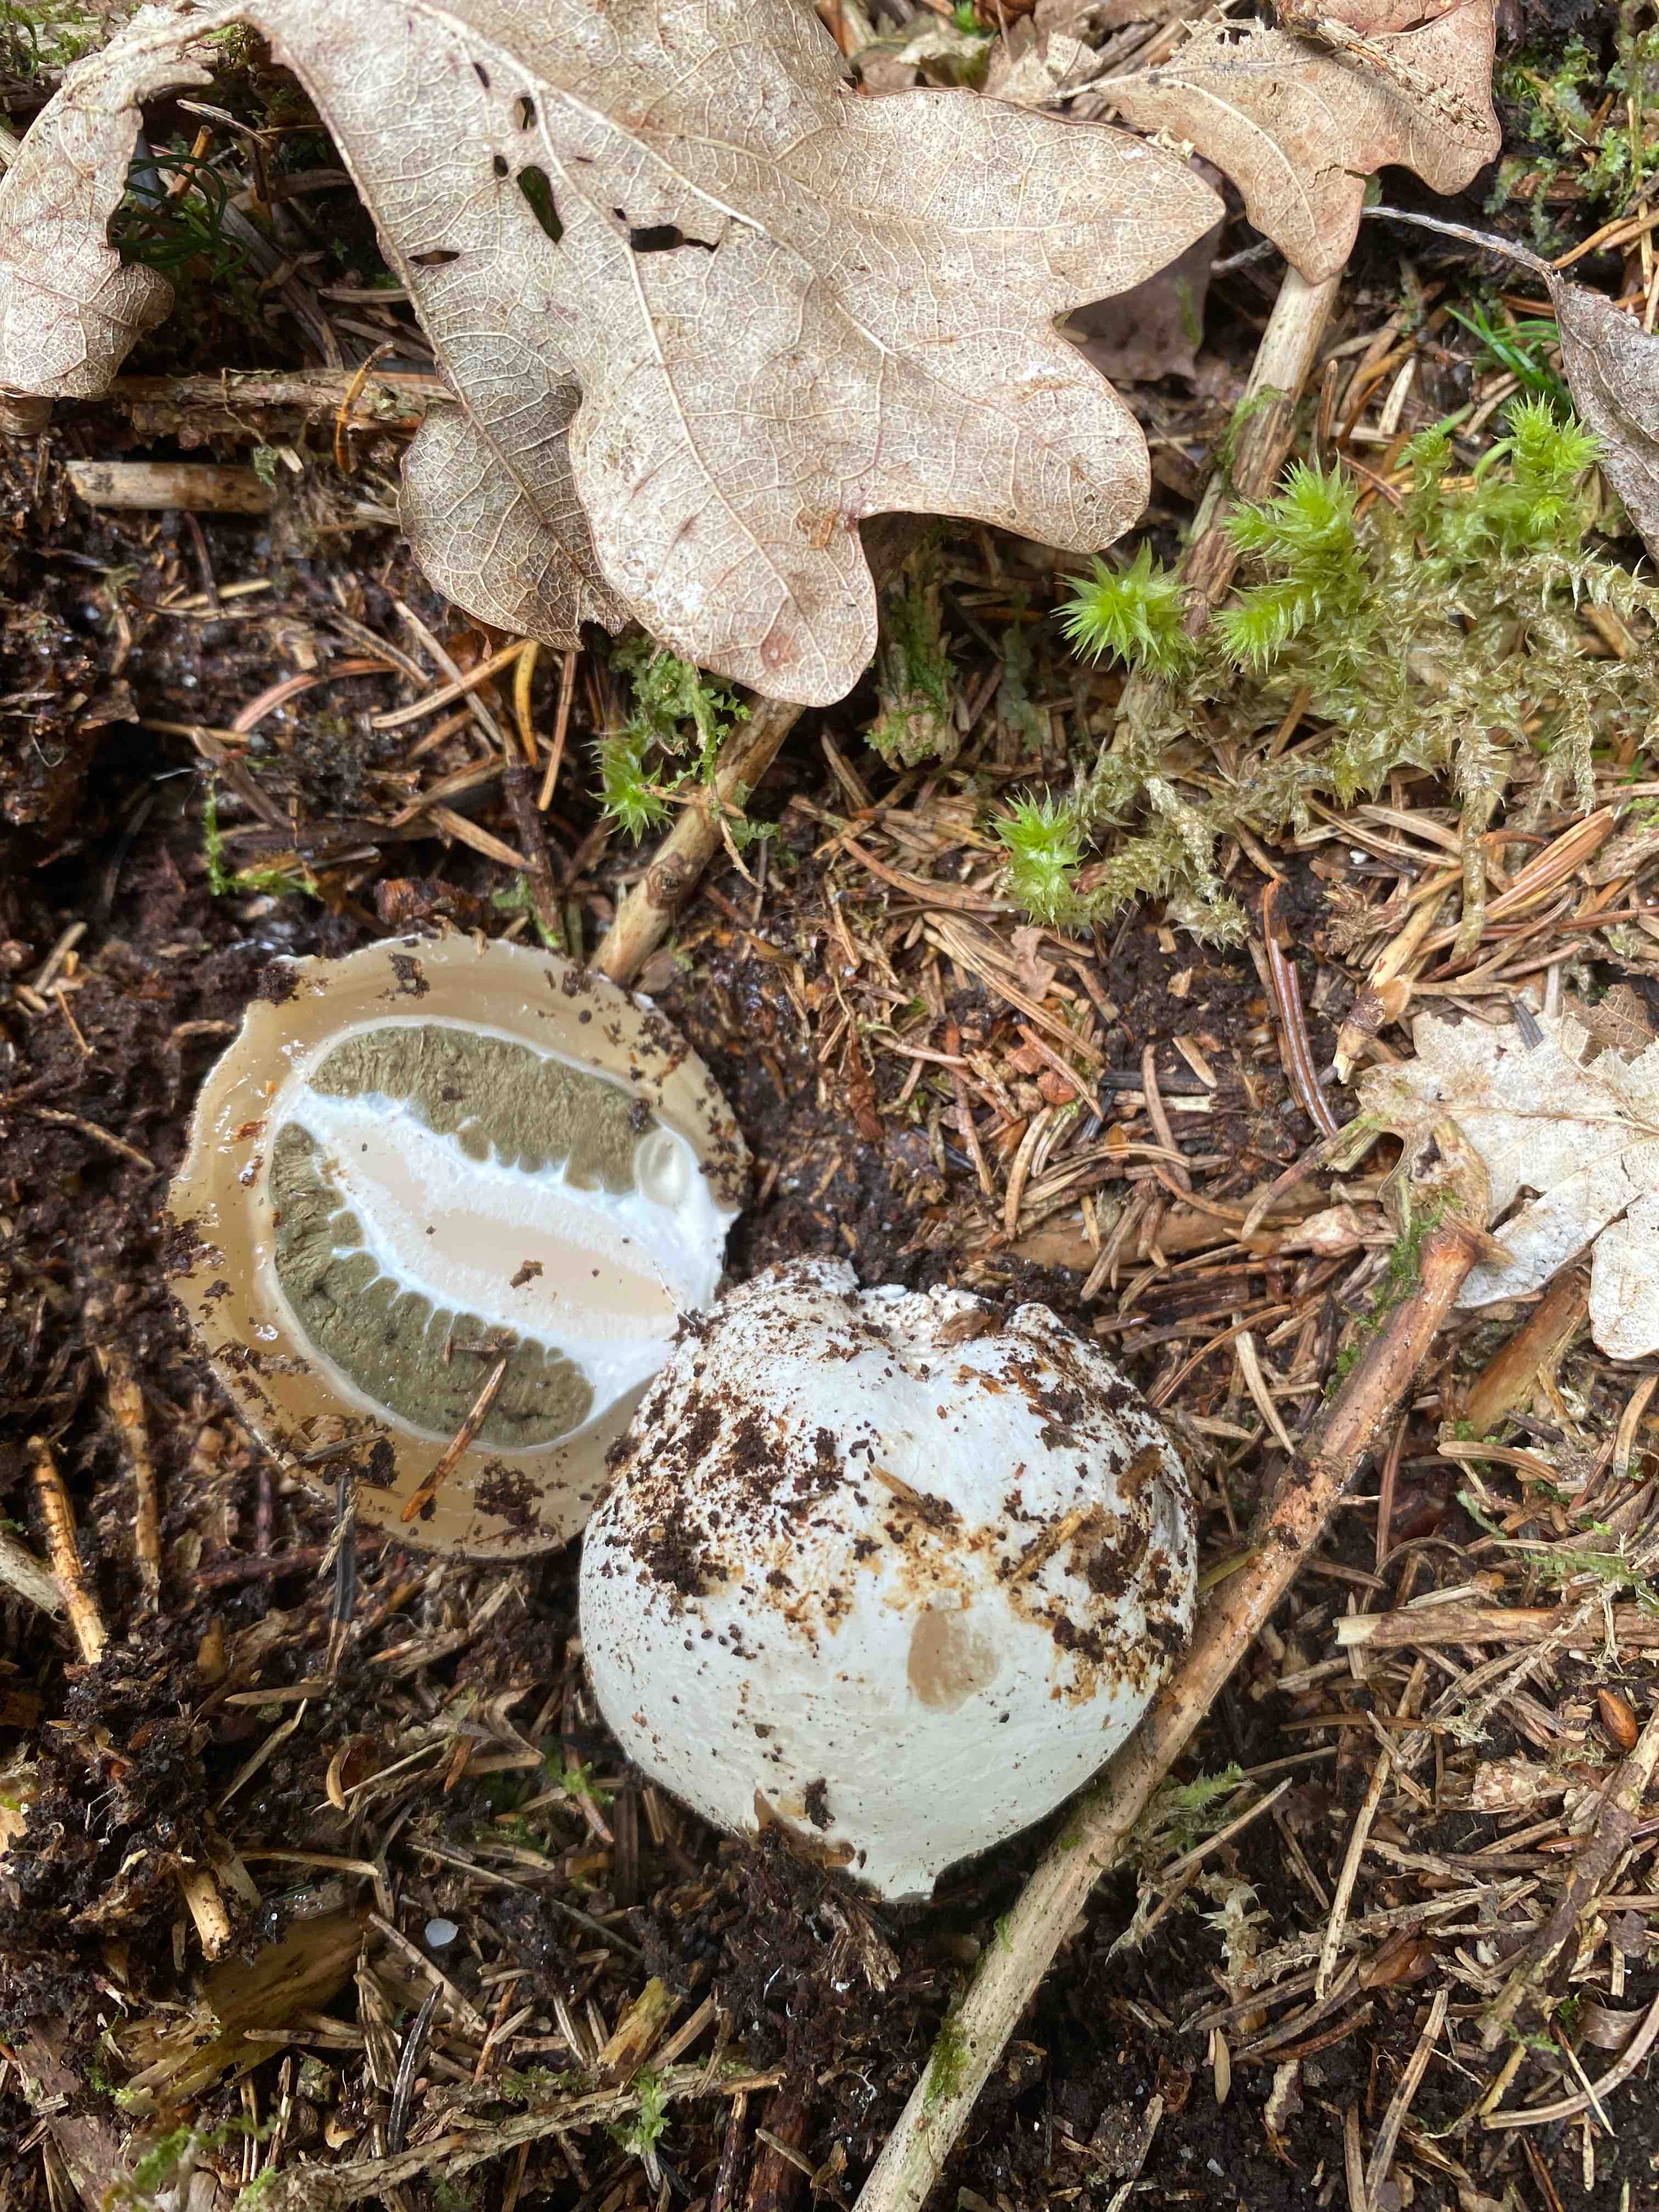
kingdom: Fungi
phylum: Basidiomycota
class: Agaricomycetes
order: Phallales
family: Phallaceae
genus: Phallus
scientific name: Phallus impudicus
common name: almindelig stinksvamp
